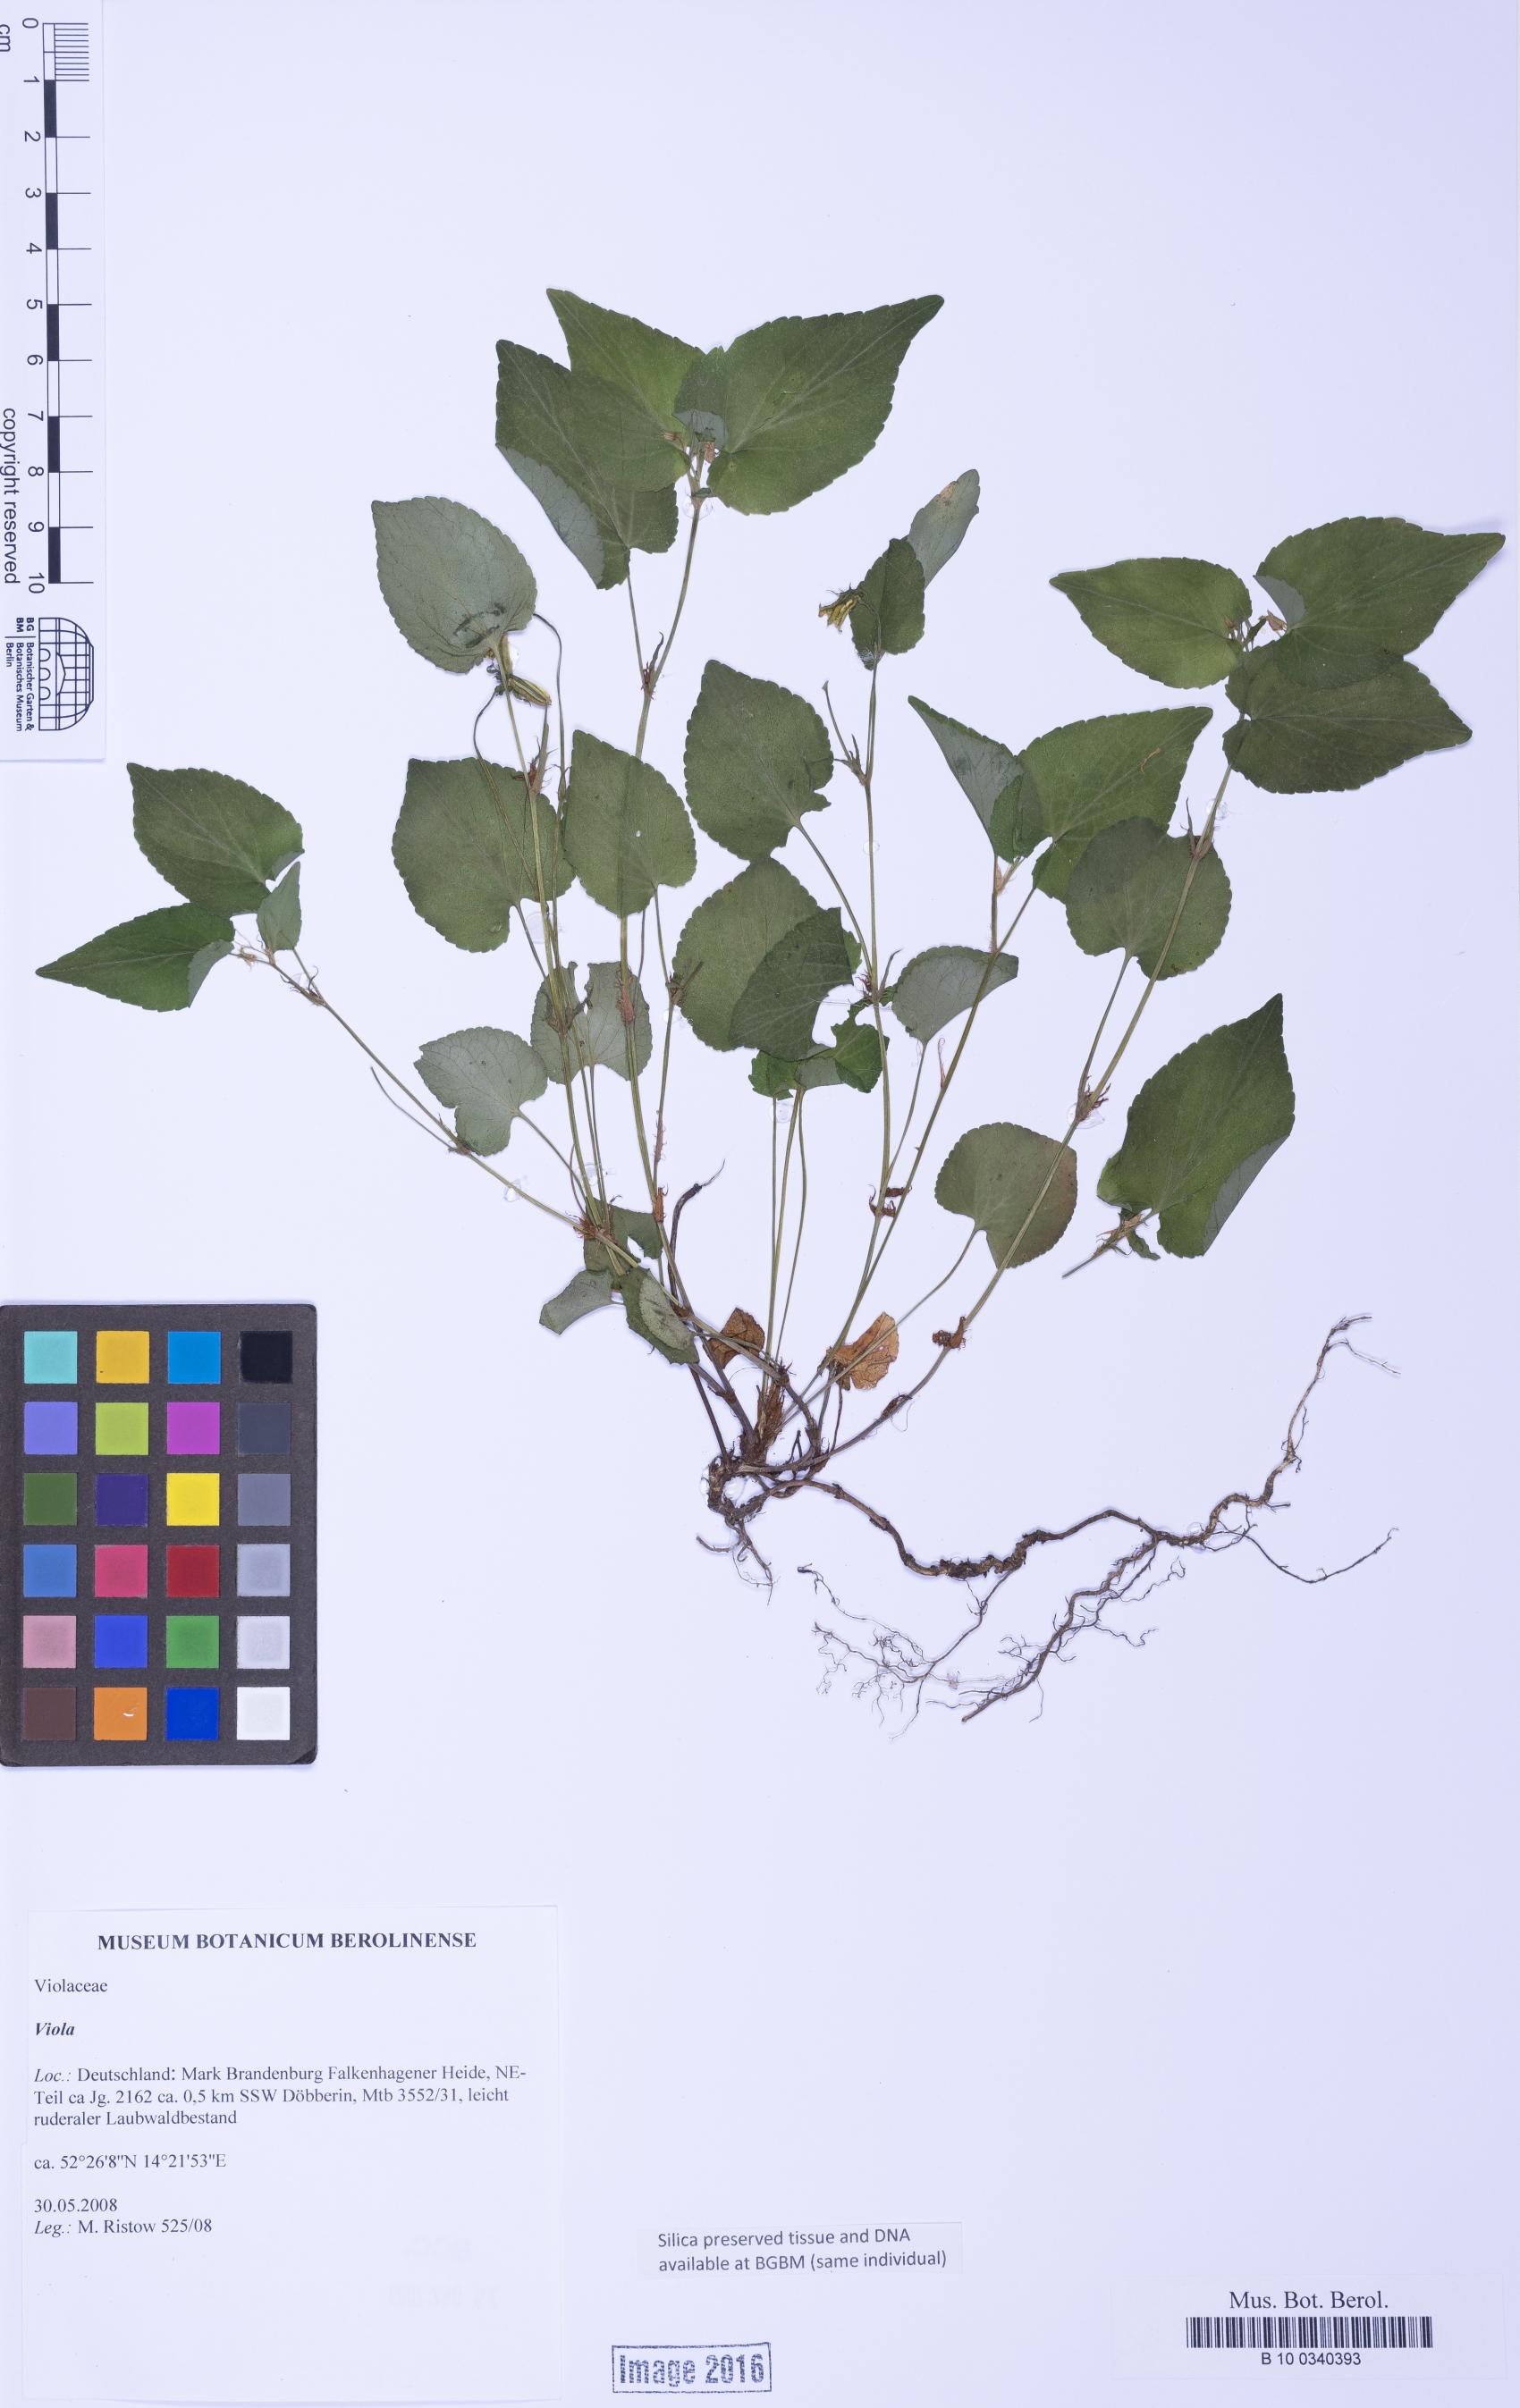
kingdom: Plantae
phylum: Tracheophyta
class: Magnoliopsida
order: Malpighiales
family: Violaceae
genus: Viola
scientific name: Viola
